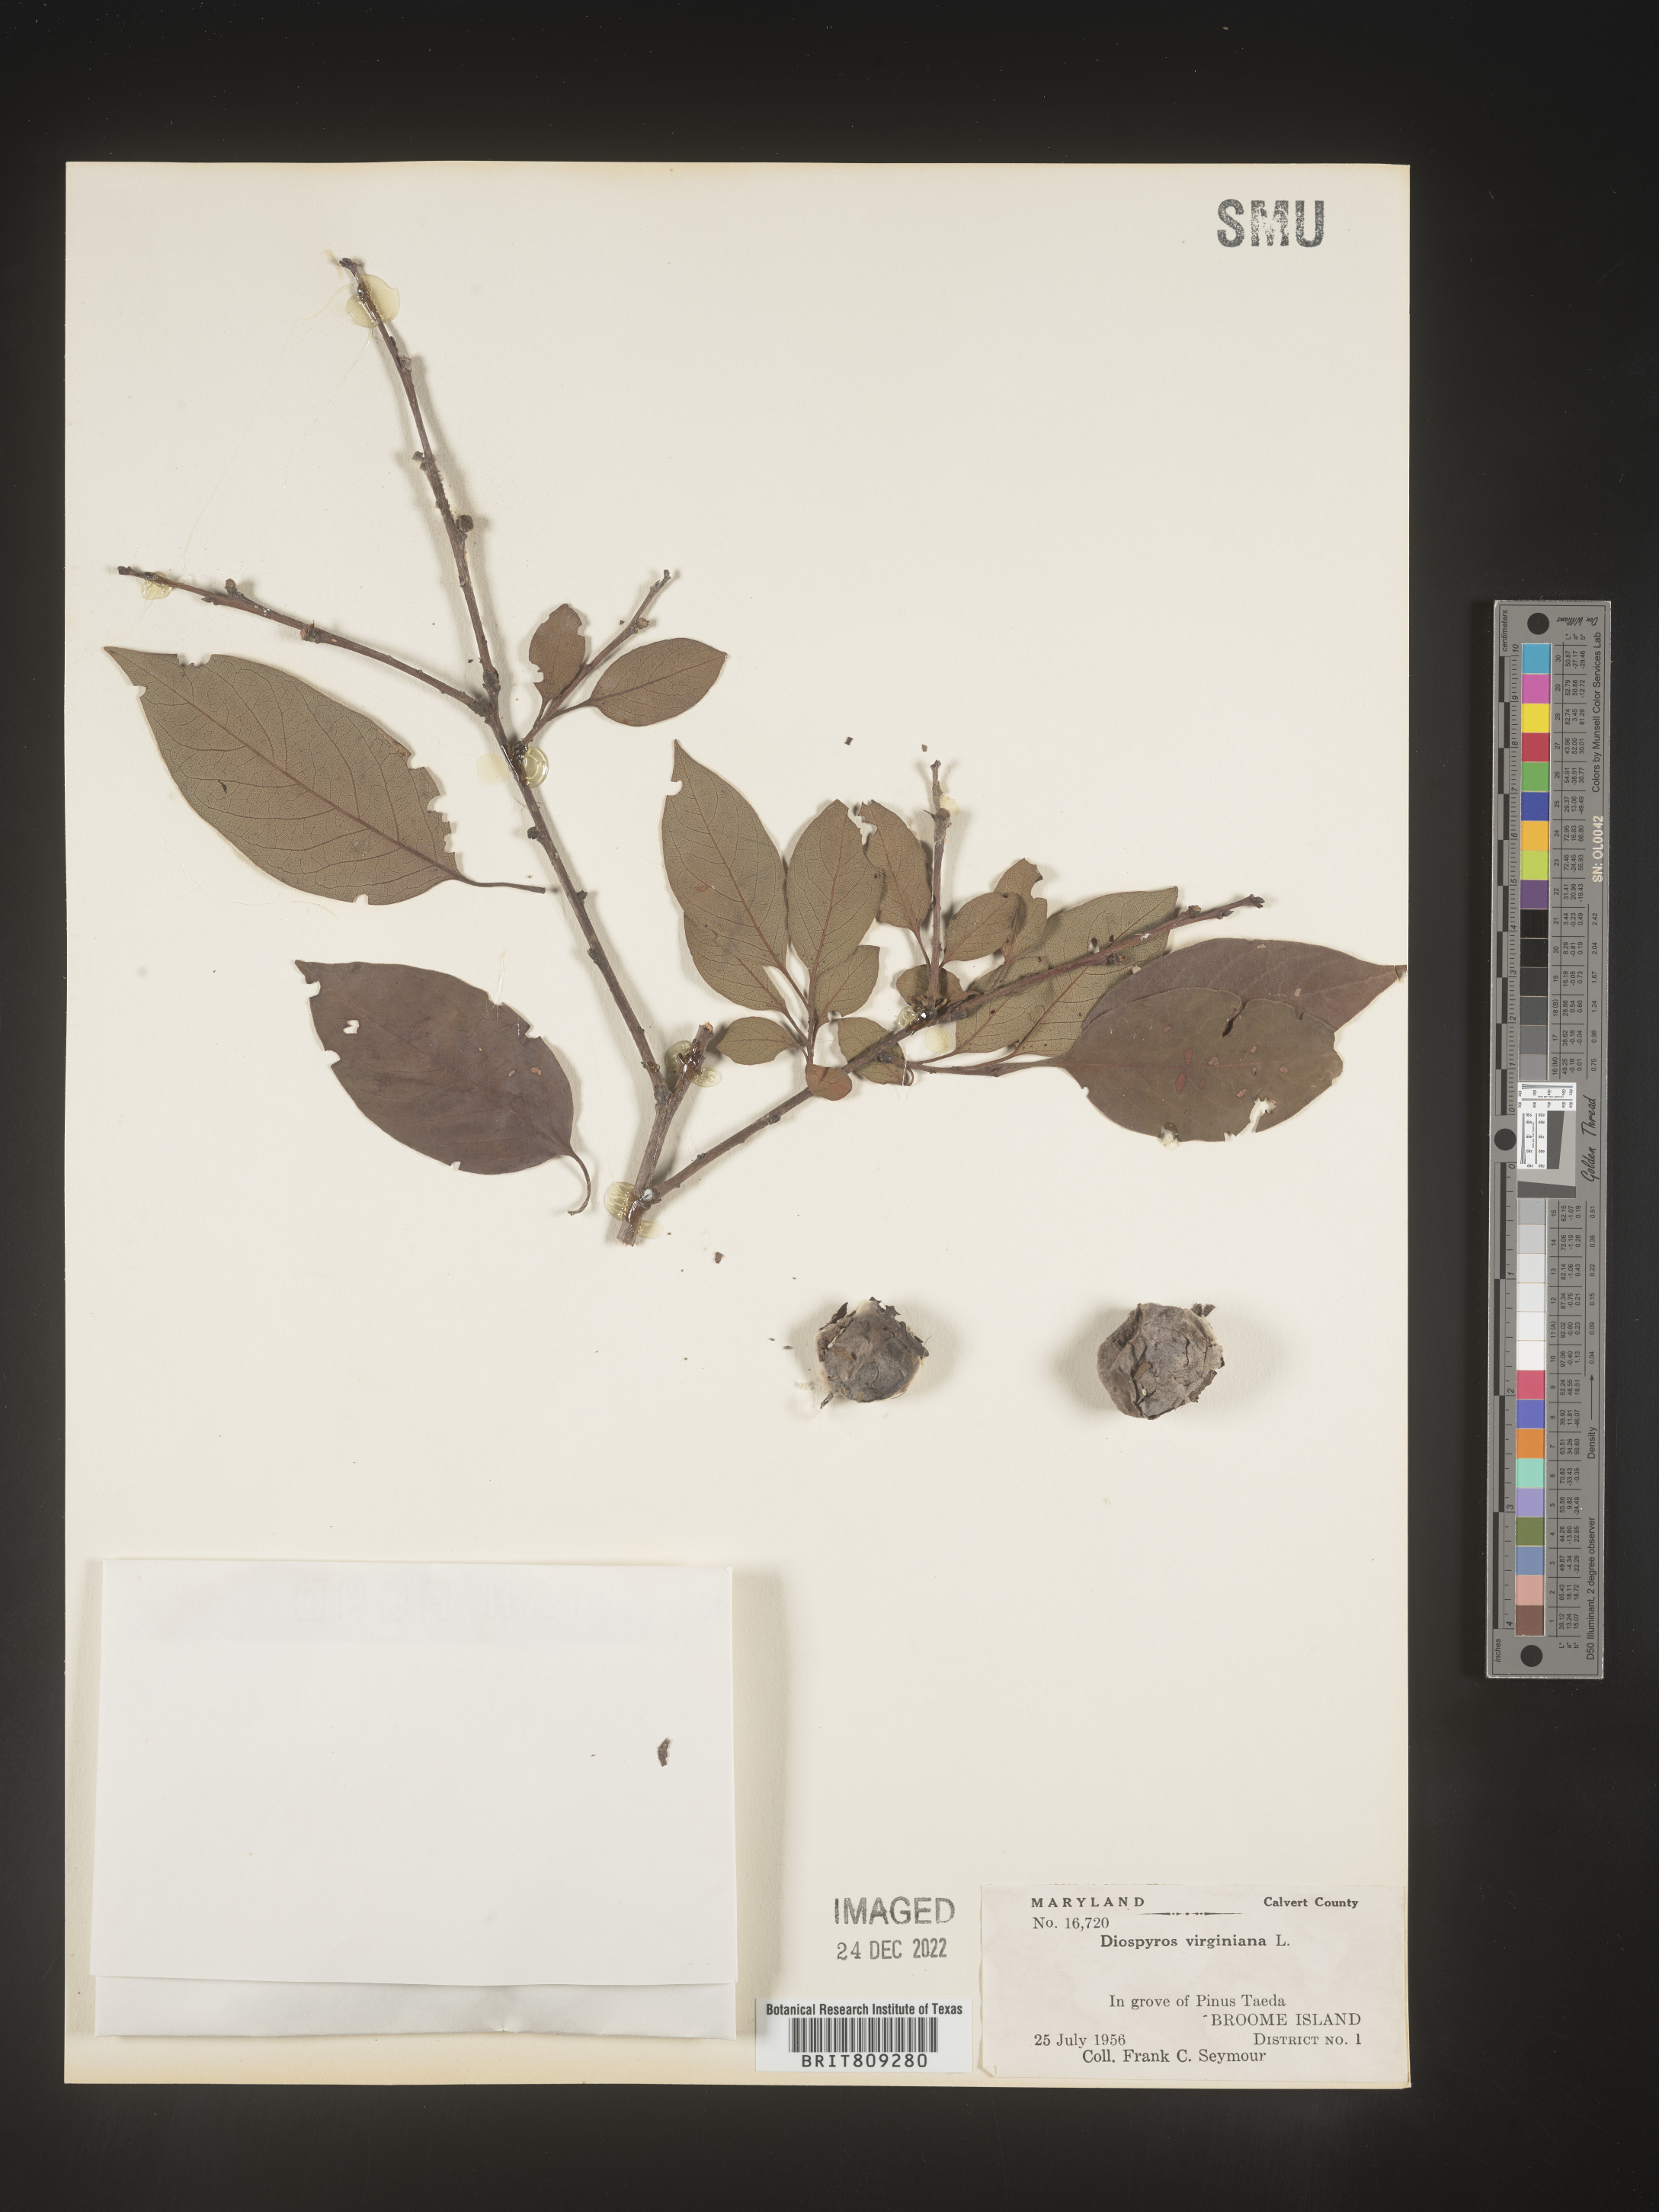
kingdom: Plantae
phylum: Tracheophyta
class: Magnoliopsida
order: Ericales
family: Ebenaceae
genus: Diospyros
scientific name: Diospyros virginiana
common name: Persimmon
